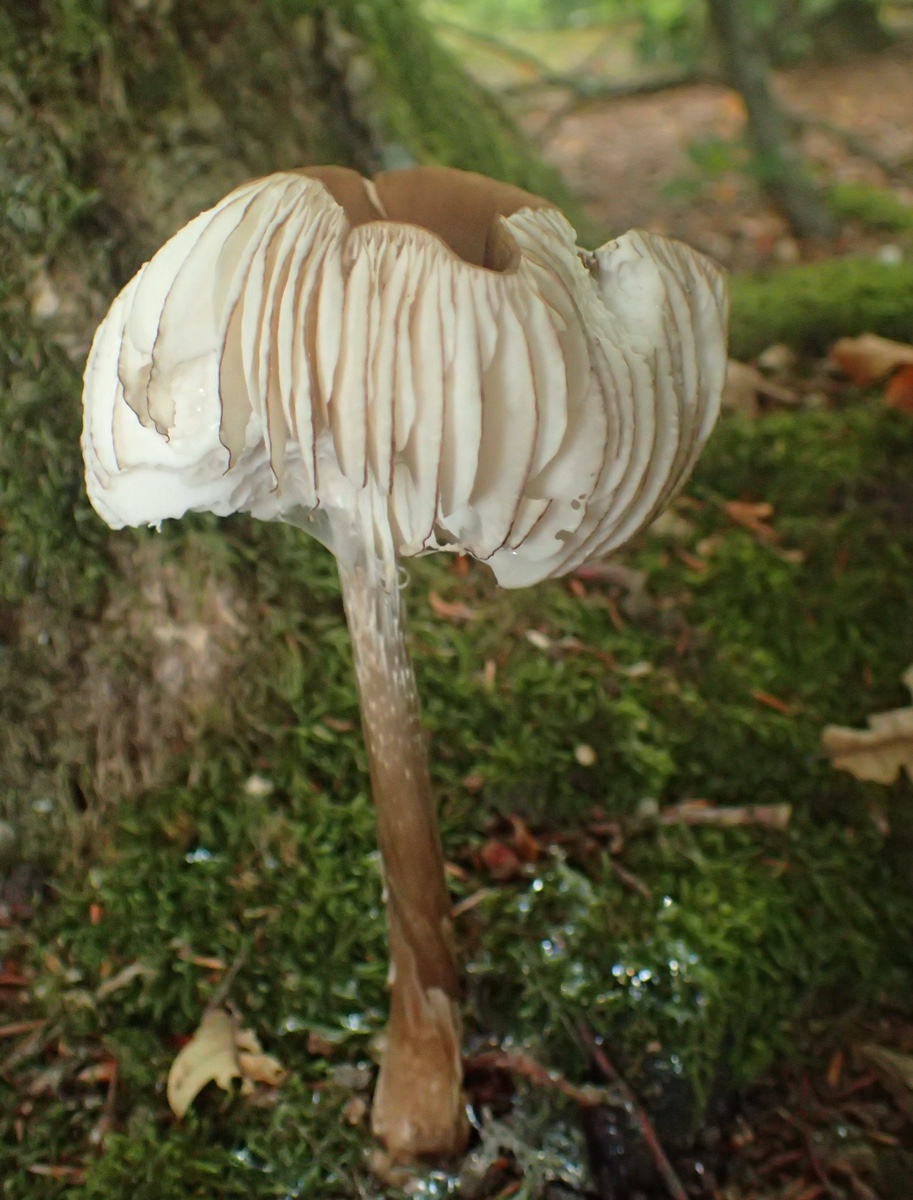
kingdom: Fungi
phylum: Basidiomycota
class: Agaricomycetes
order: Agaricales
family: Physalacriaceae
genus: Hymenopellis
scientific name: Hymenopellis radicata
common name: almindelig pælerodshat
